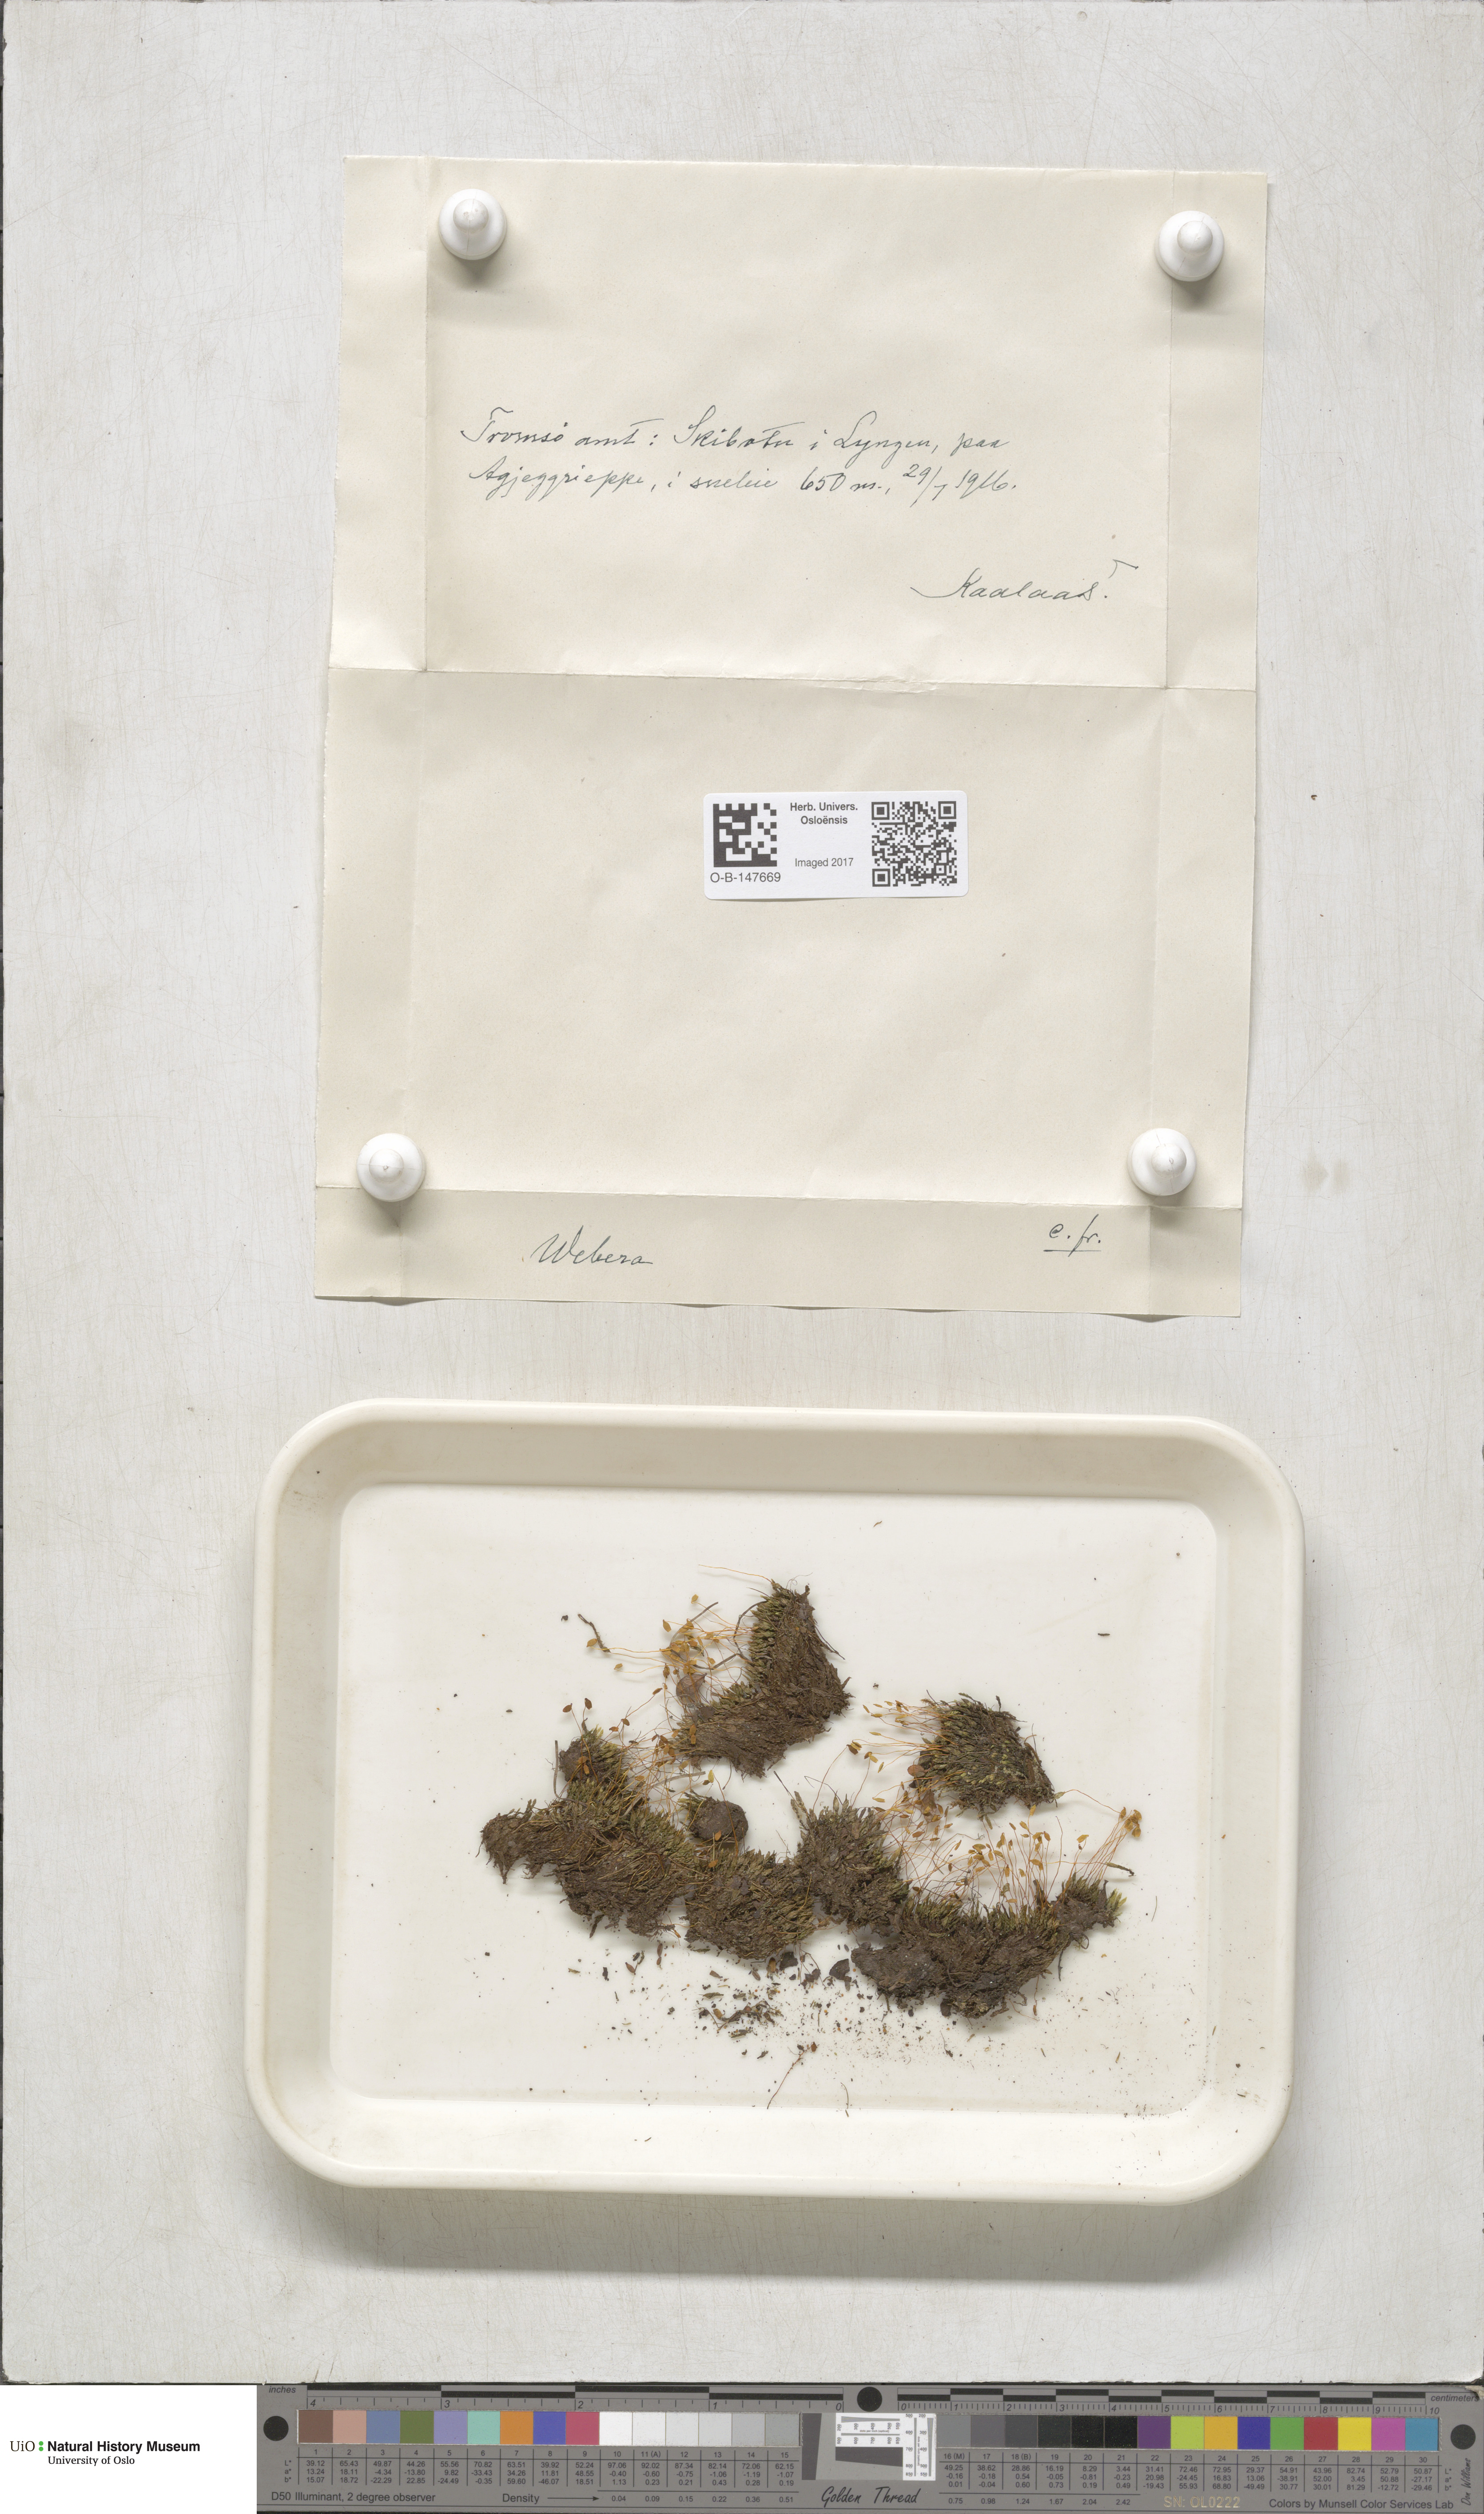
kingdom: Plantae
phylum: Bryophyta
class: Bryopsida
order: Bryales
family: Mniaceae
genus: Pohlia
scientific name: Pohlia
